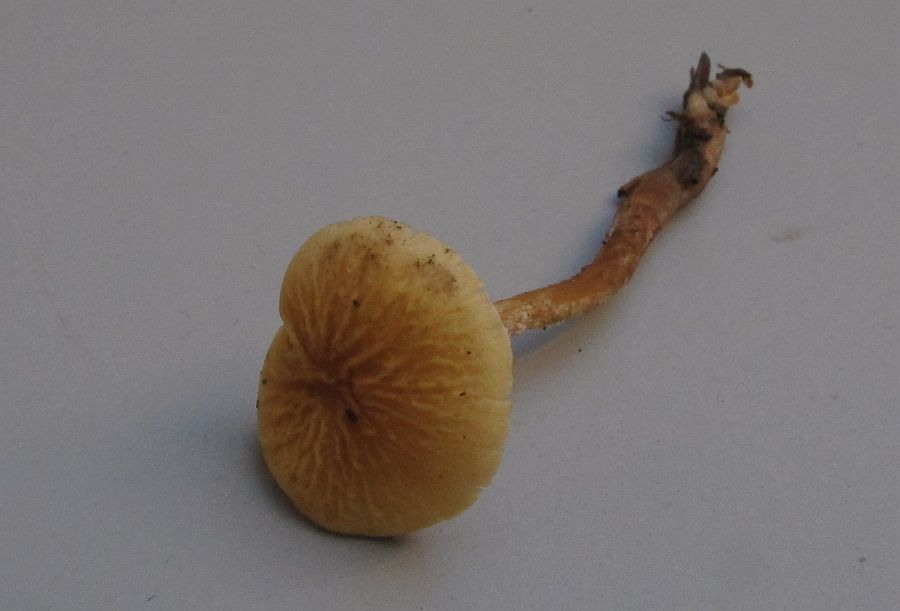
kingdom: Fungi
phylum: Basidiomycota
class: Agaricomycetes
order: Agaricales
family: Tricholomataceae
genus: Cystoderma
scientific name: Cystoderma amianthinum
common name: okkergul grynhat
